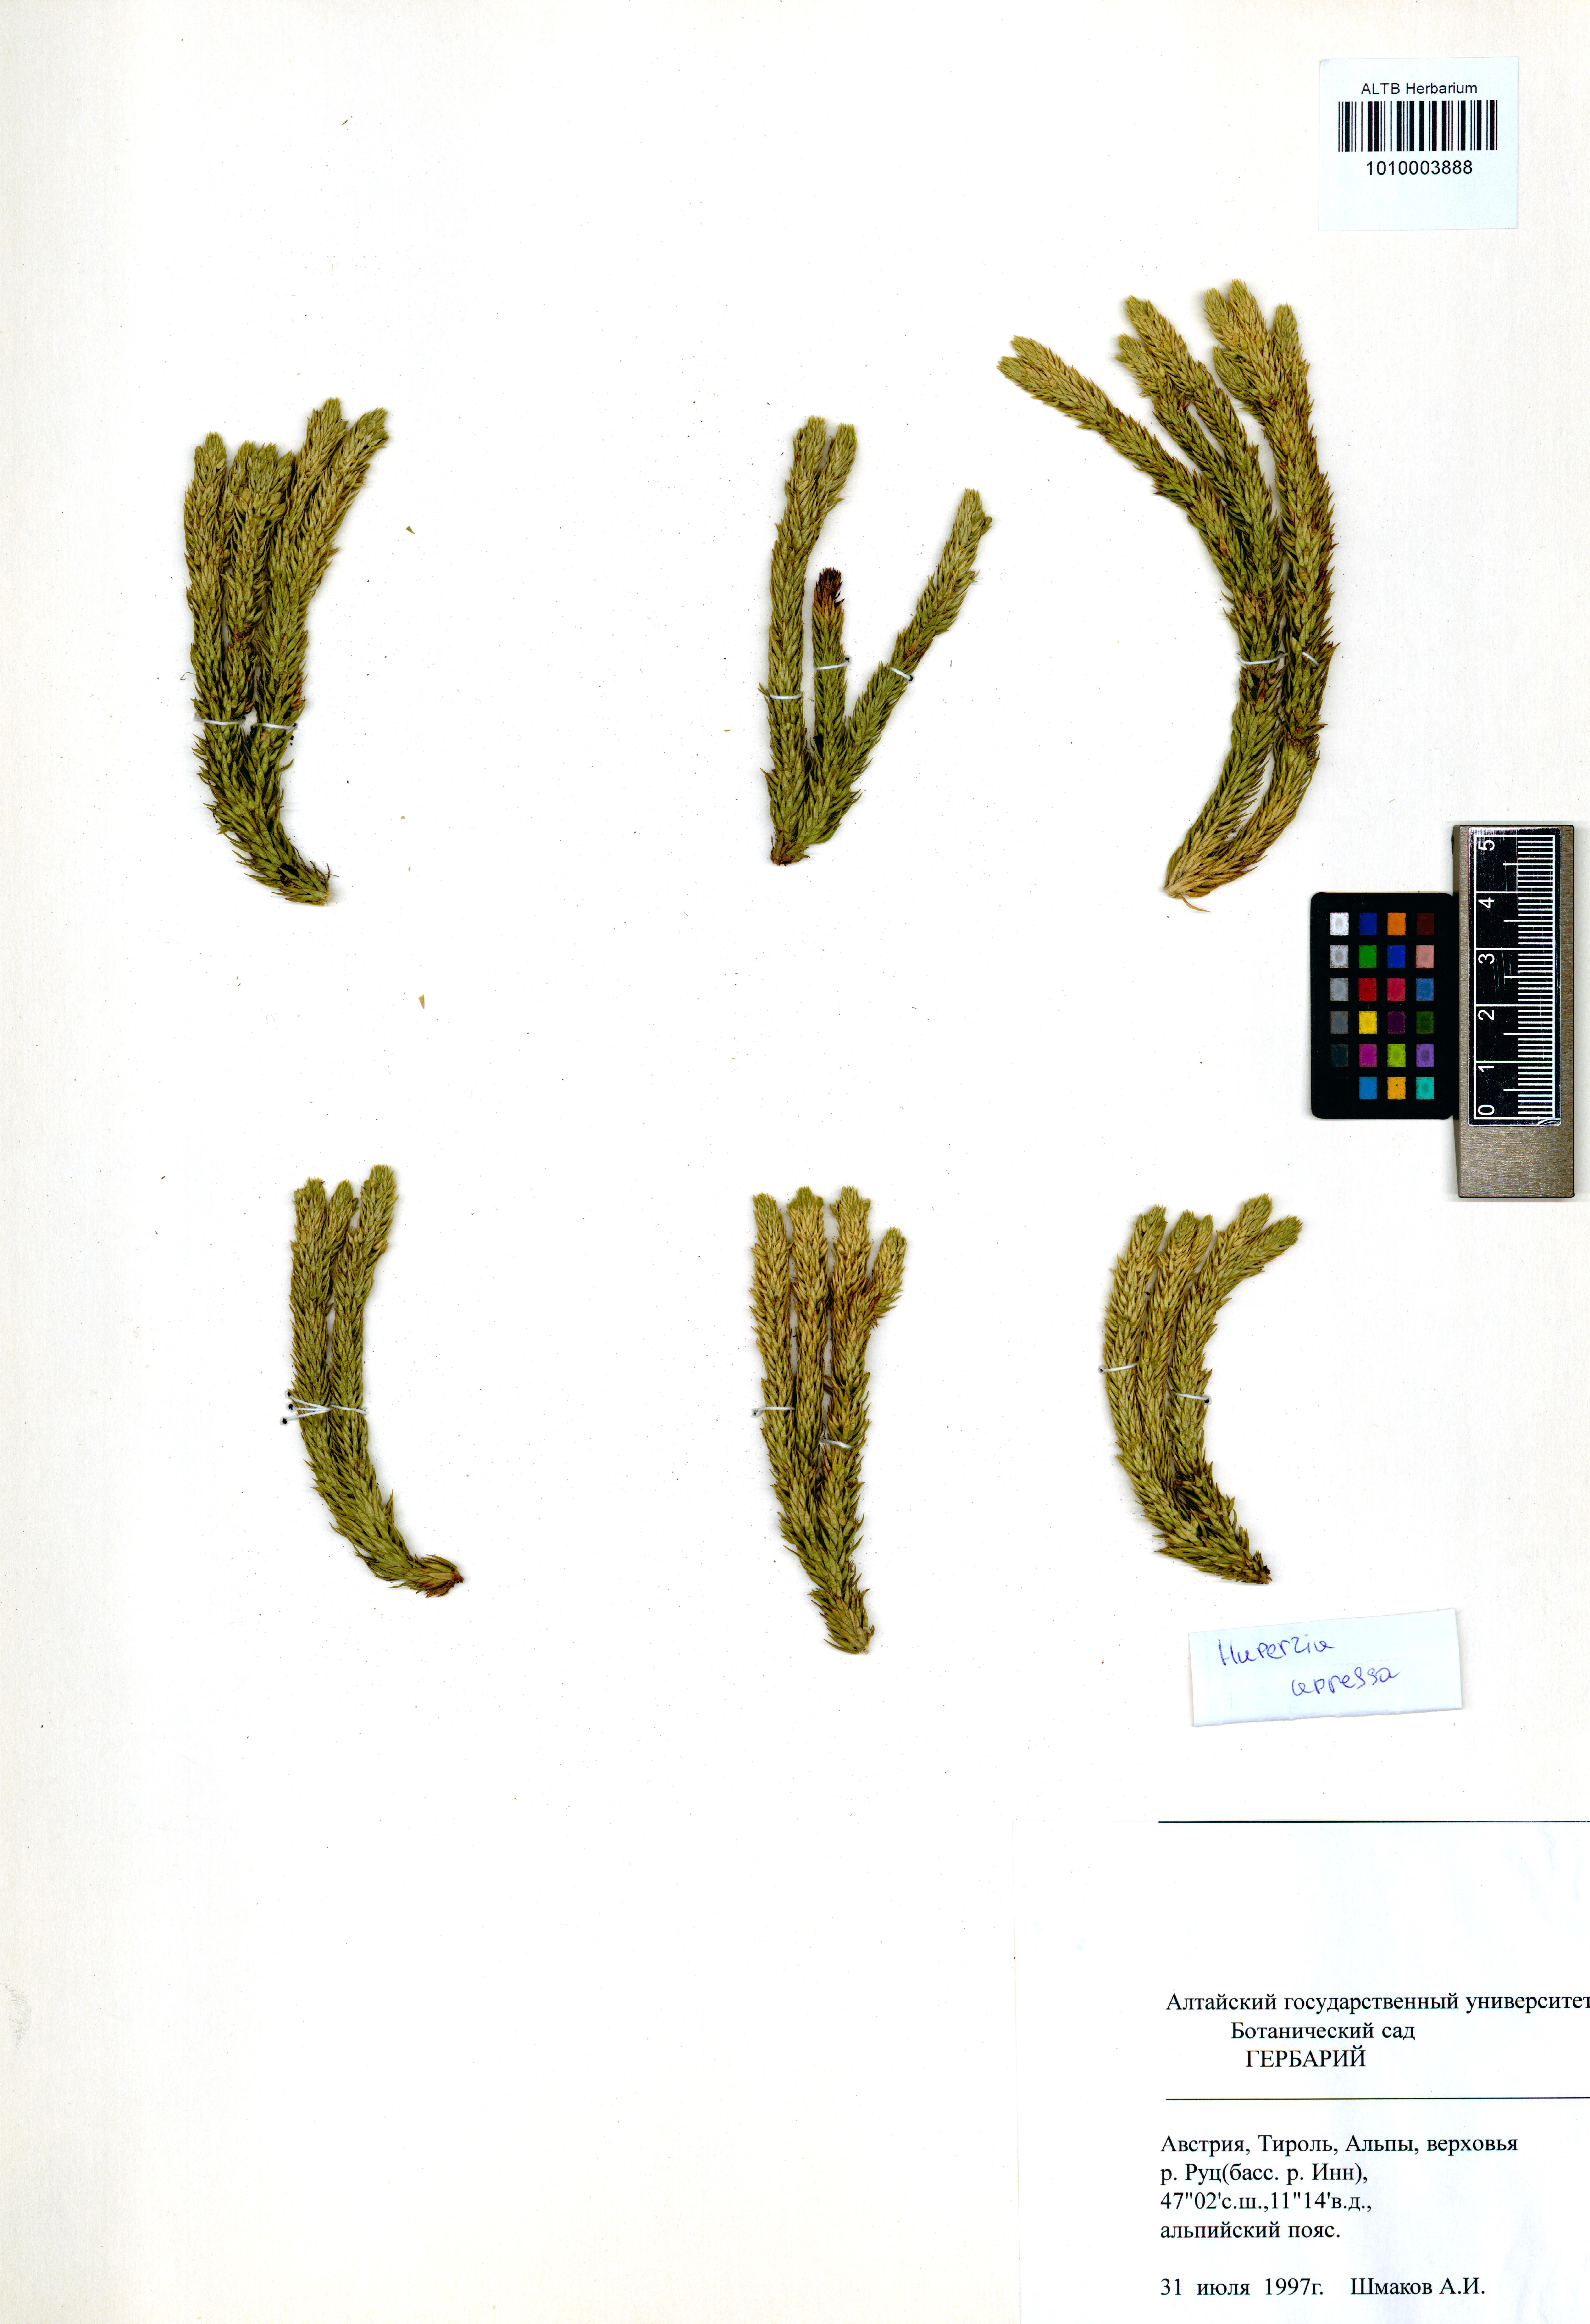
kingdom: Plantae
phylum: Tracheophyta
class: Lycopodiopsida
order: Lycopodiales
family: Lycopodiaceae
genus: Huperzia
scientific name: Huperzia selago
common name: Northern firmoss
